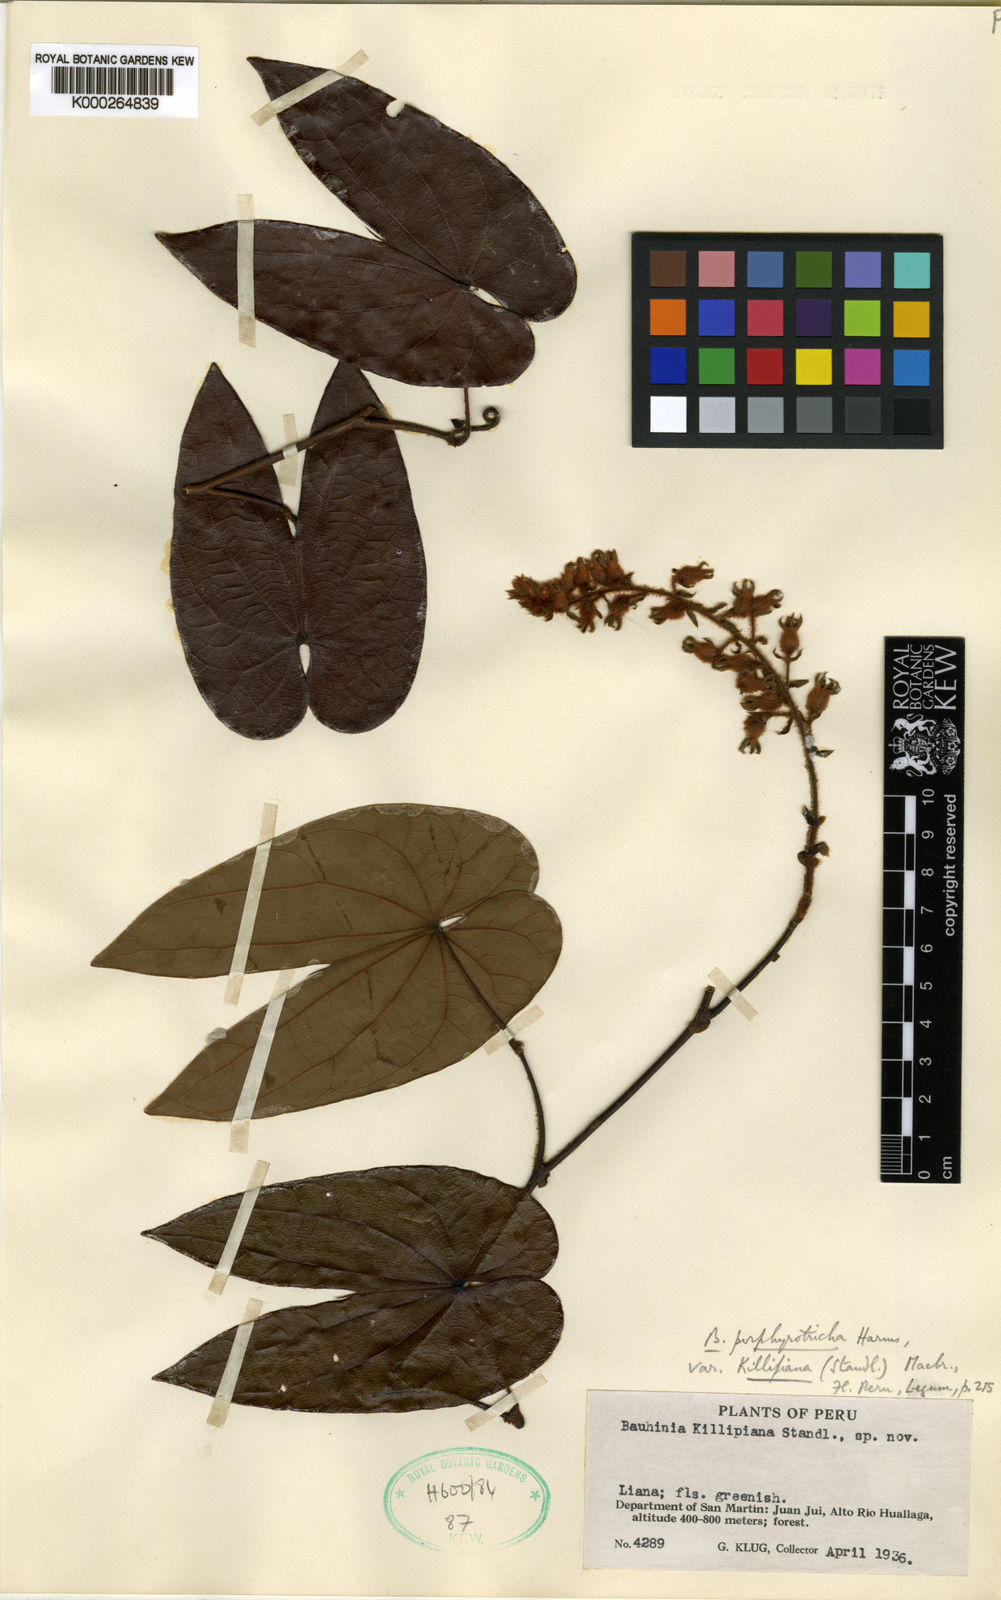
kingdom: Plantae
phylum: Tracheophyta
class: Magnoliopsida
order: Fabales
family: Fabaceae
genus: Schnella
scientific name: Schnella porphyrotricha
